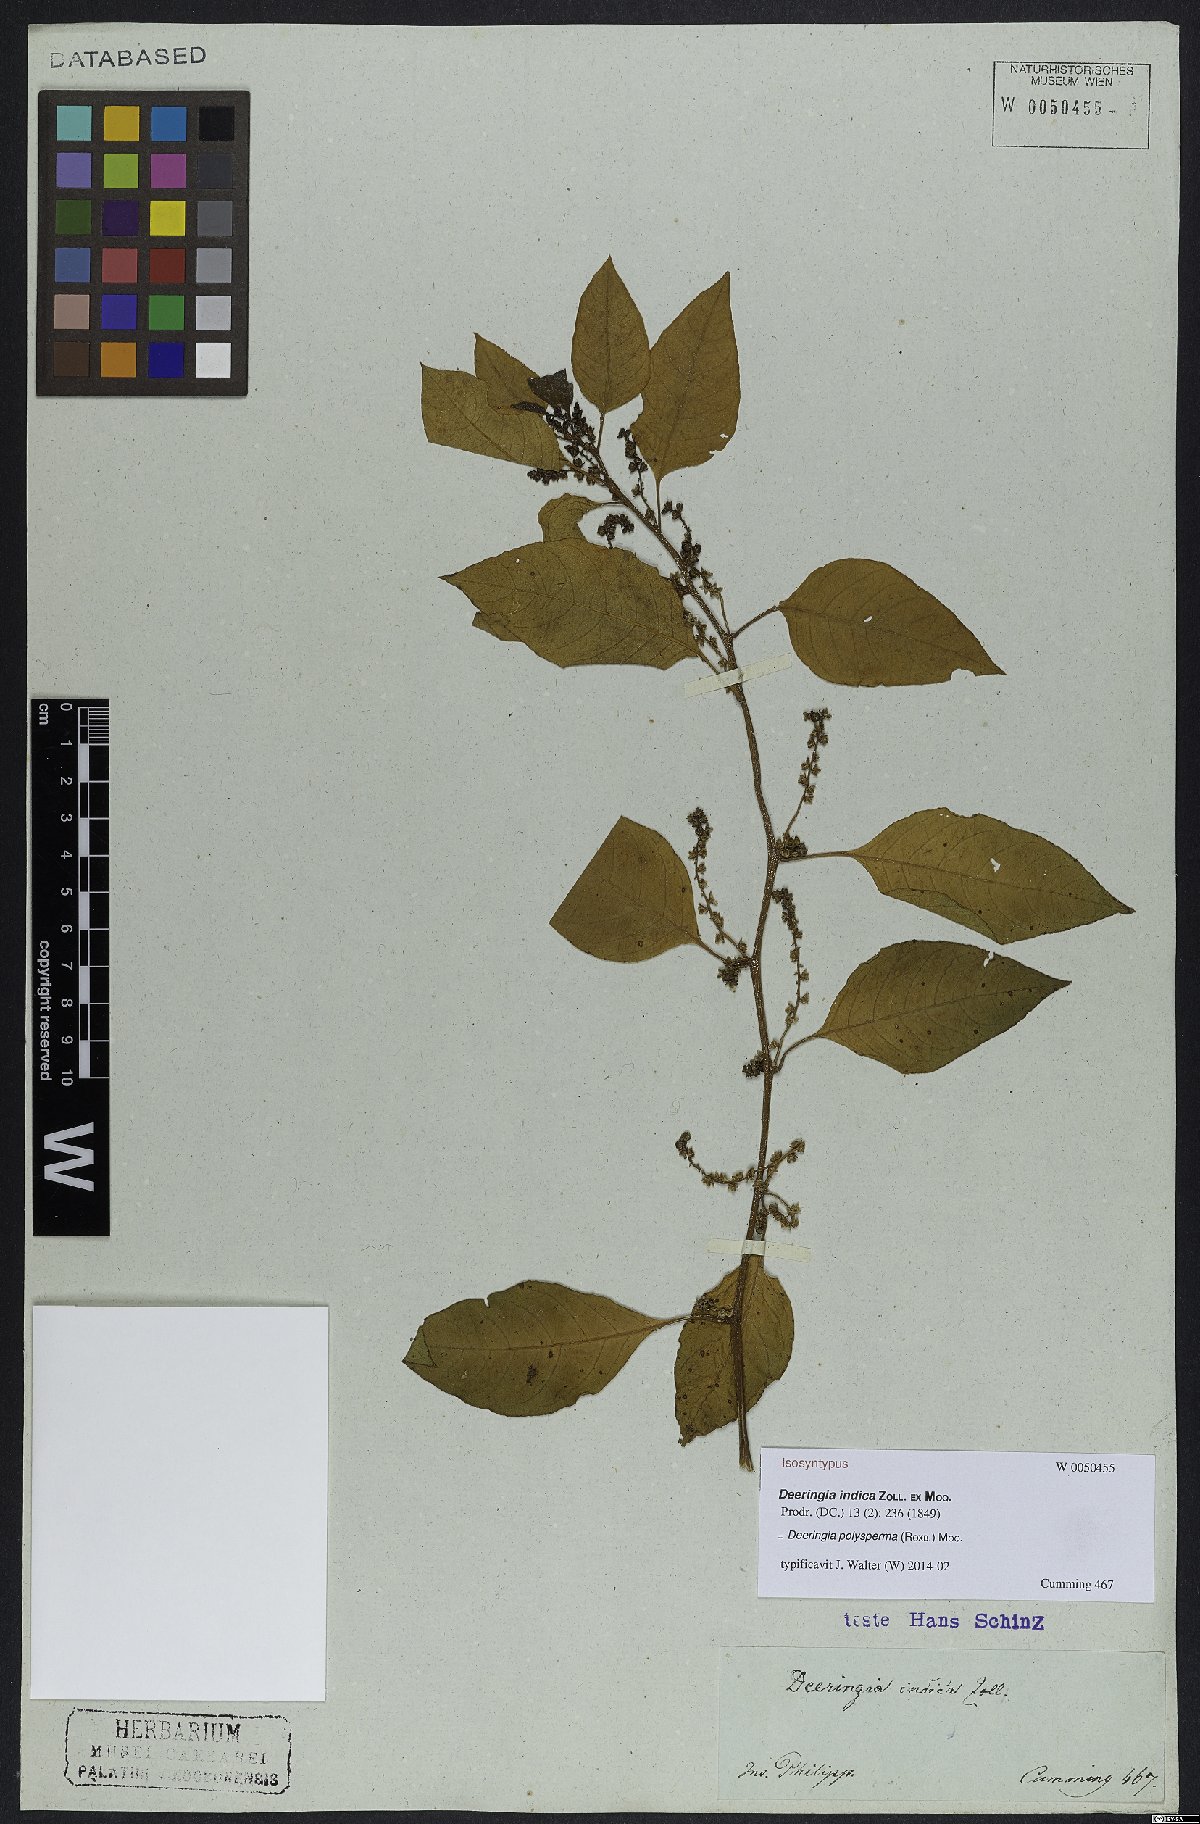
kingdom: Plantae
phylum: Tracheophyta
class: Magnoliopsida
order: Caryophyllales
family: Amaranthaceae
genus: Deeringia
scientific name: Deeringia polysperma
